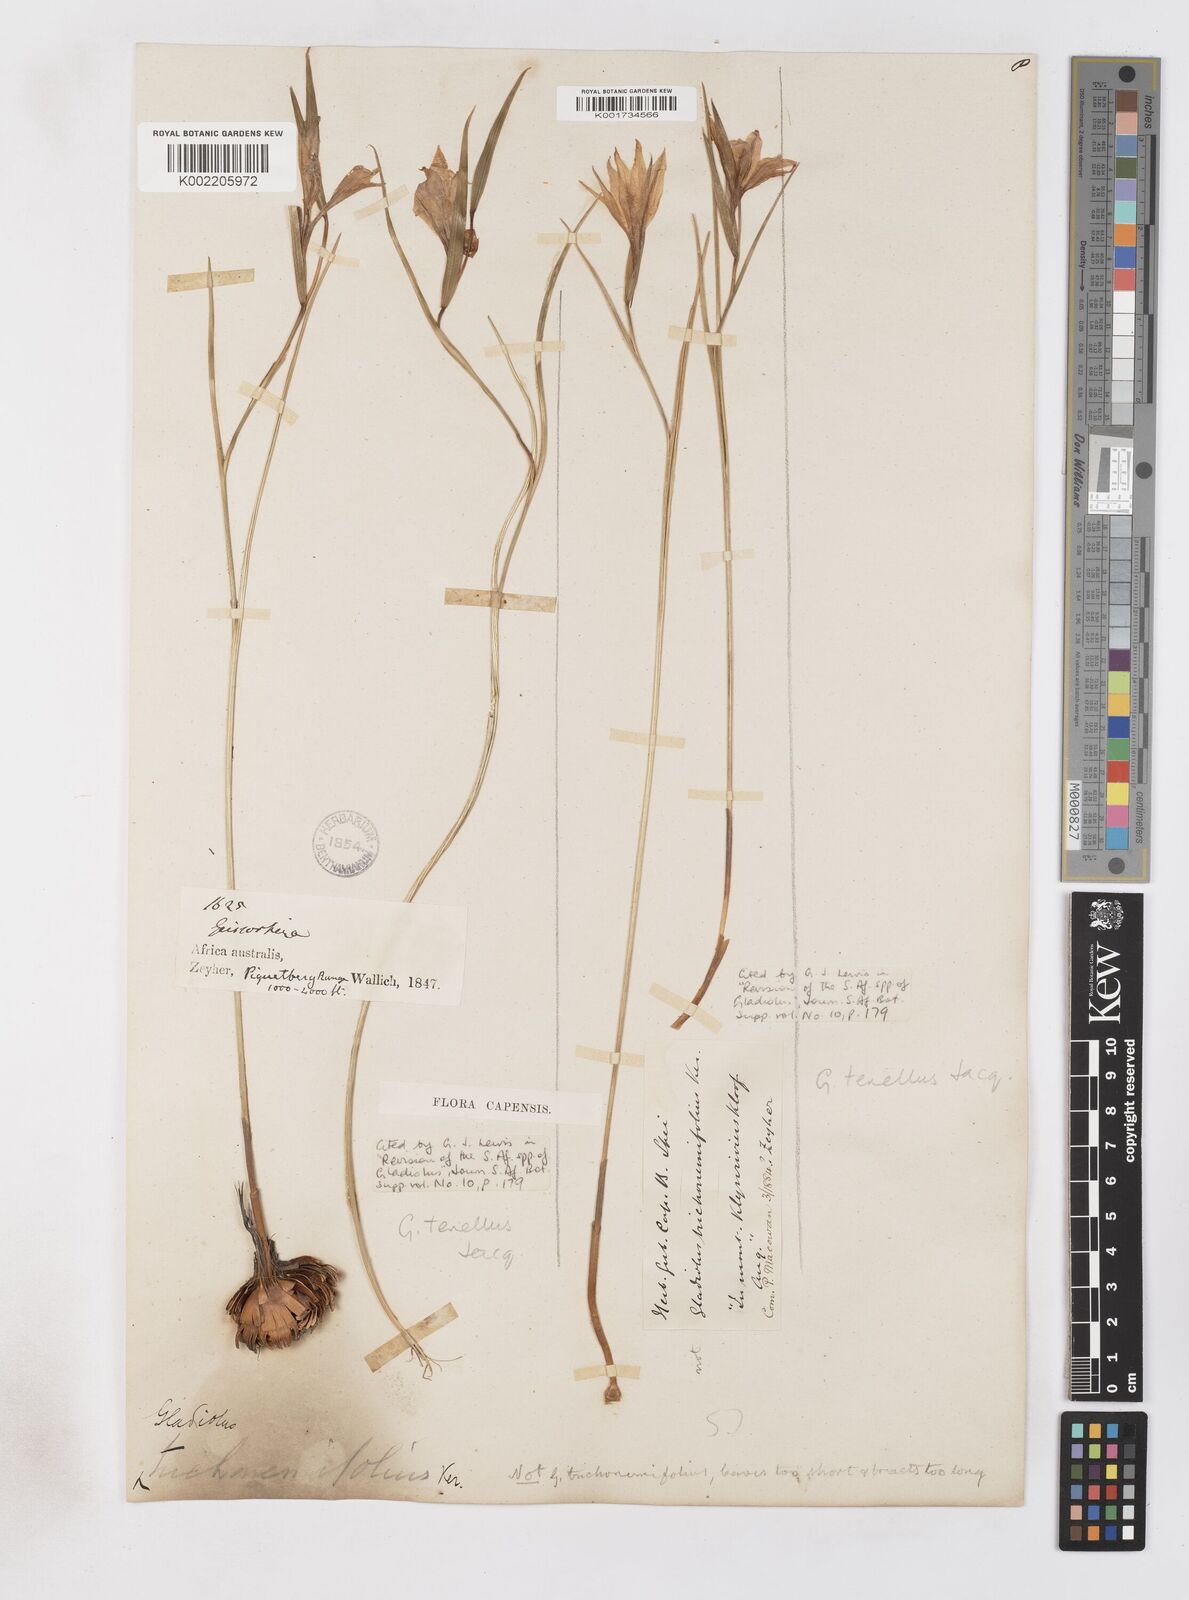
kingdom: Plantae
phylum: Tracheophyta
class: Liliopsida
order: Asparagales
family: Iridaceae
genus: Gladiolus
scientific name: Gladiolus carinatus
